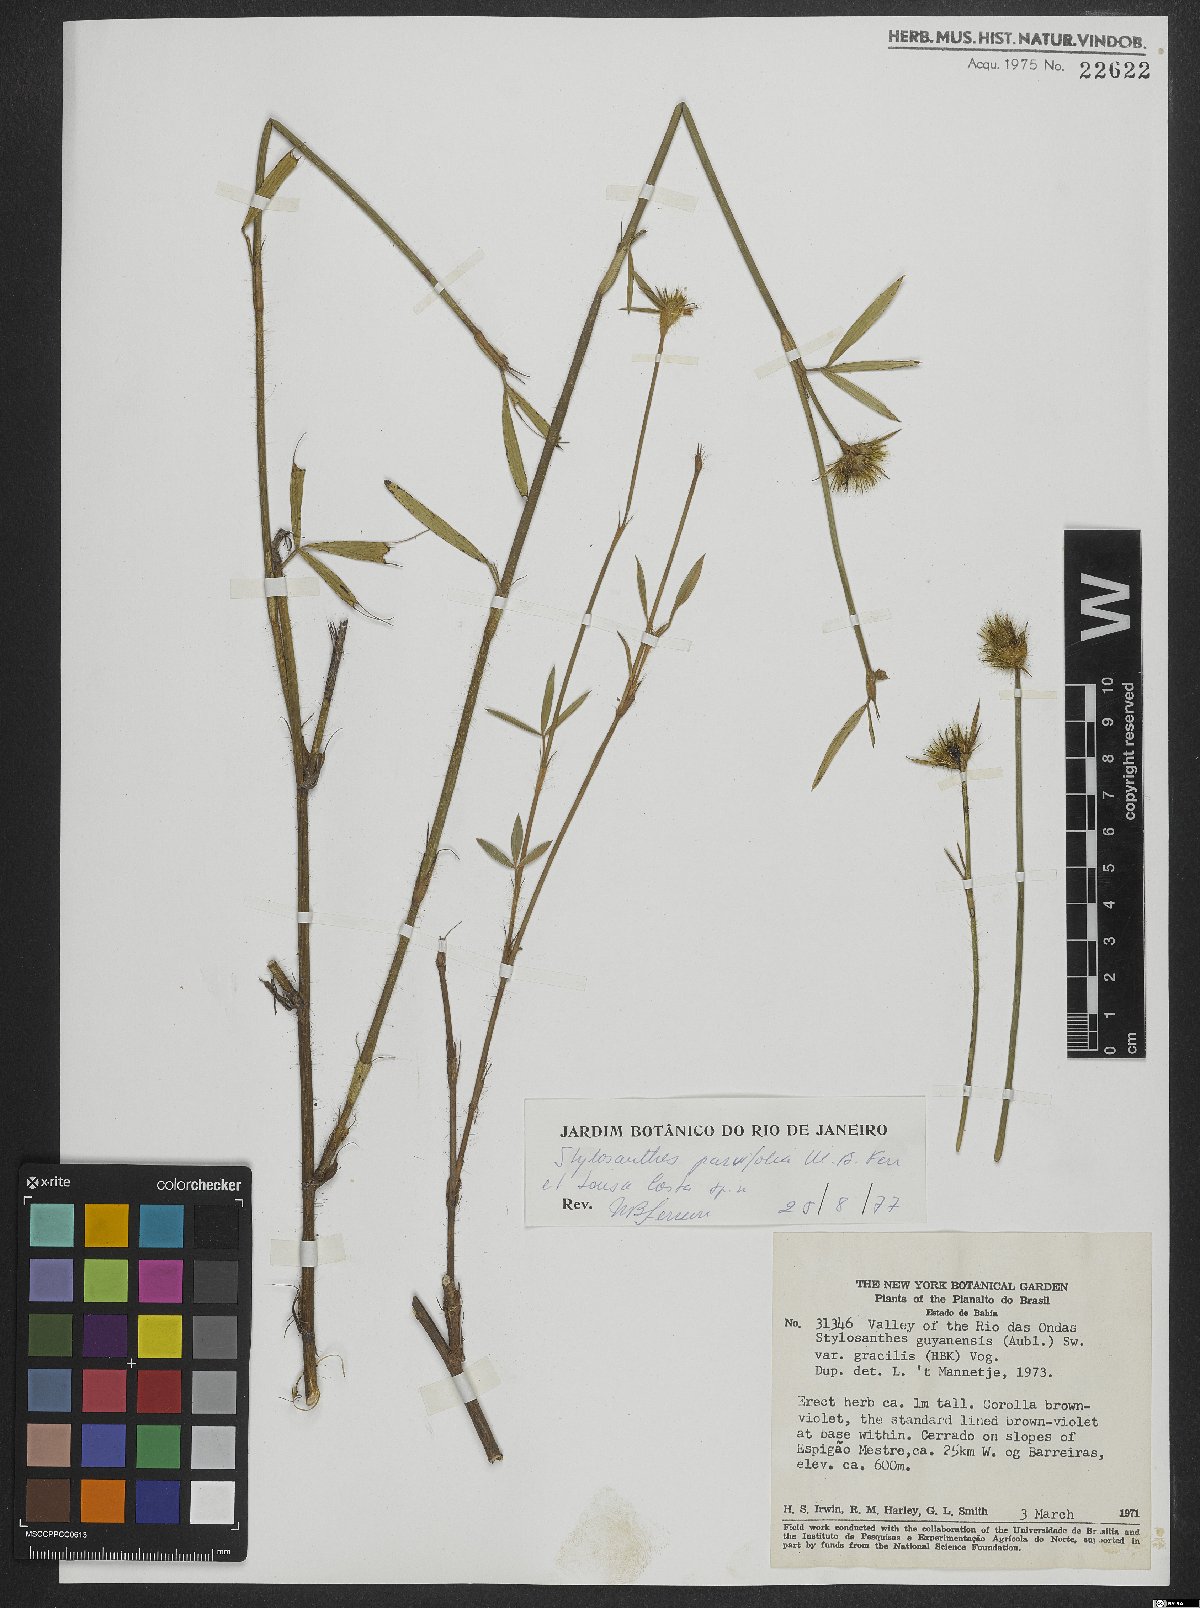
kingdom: Plantae
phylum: Tracheophyta
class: Magnoliopsida
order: Fabales
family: Fabaceae
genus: Stylosanthes
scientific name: Stylosanthes
